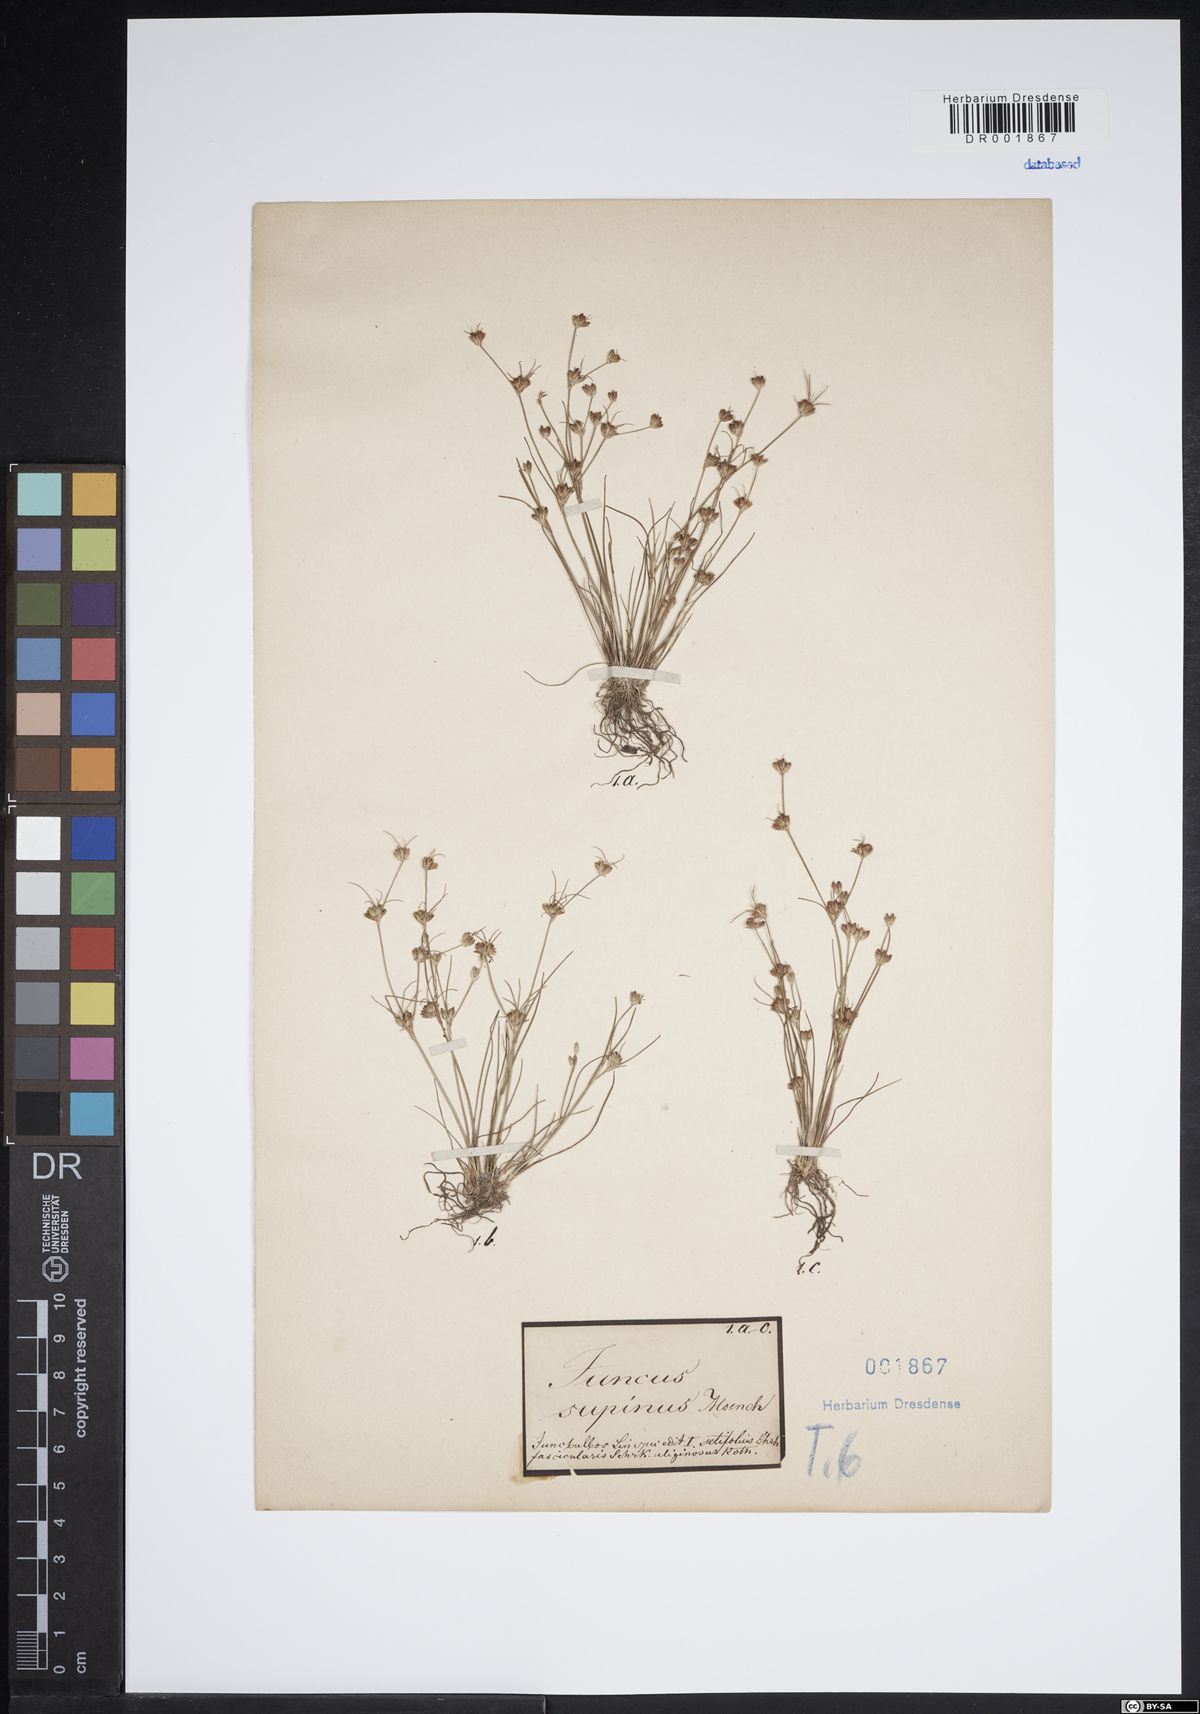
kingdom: Plantae
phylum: Tracheophyta
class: Liliopsida
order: Poales
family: Juncaceae
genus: Juncus
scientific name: Juncus bulbosus
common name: Bulbous rush
